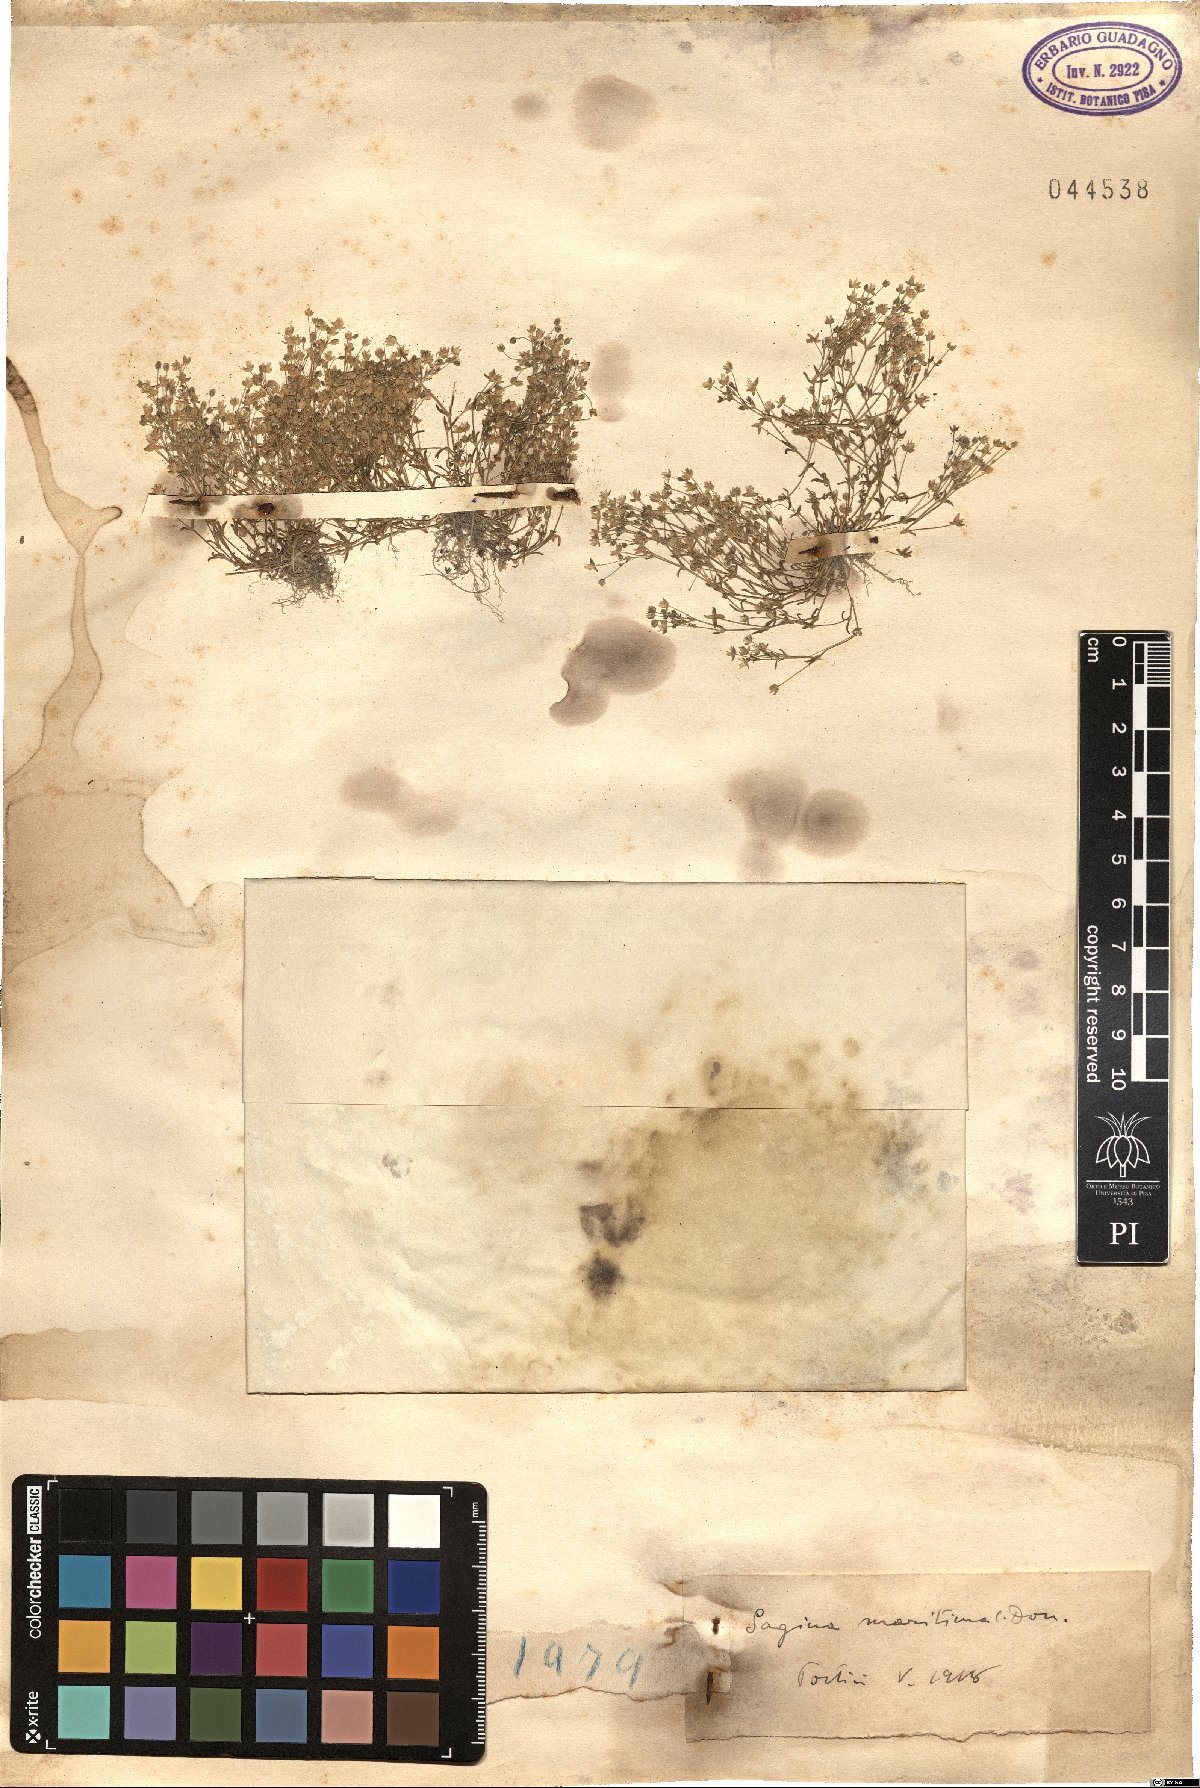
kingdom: Plantae
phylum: Tracheophyta
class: Magnoliopsida
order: Caryophyllales
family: Caryophyllaceae
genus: Sagina
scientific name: Sagina maritima
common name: Sea pearlwort
